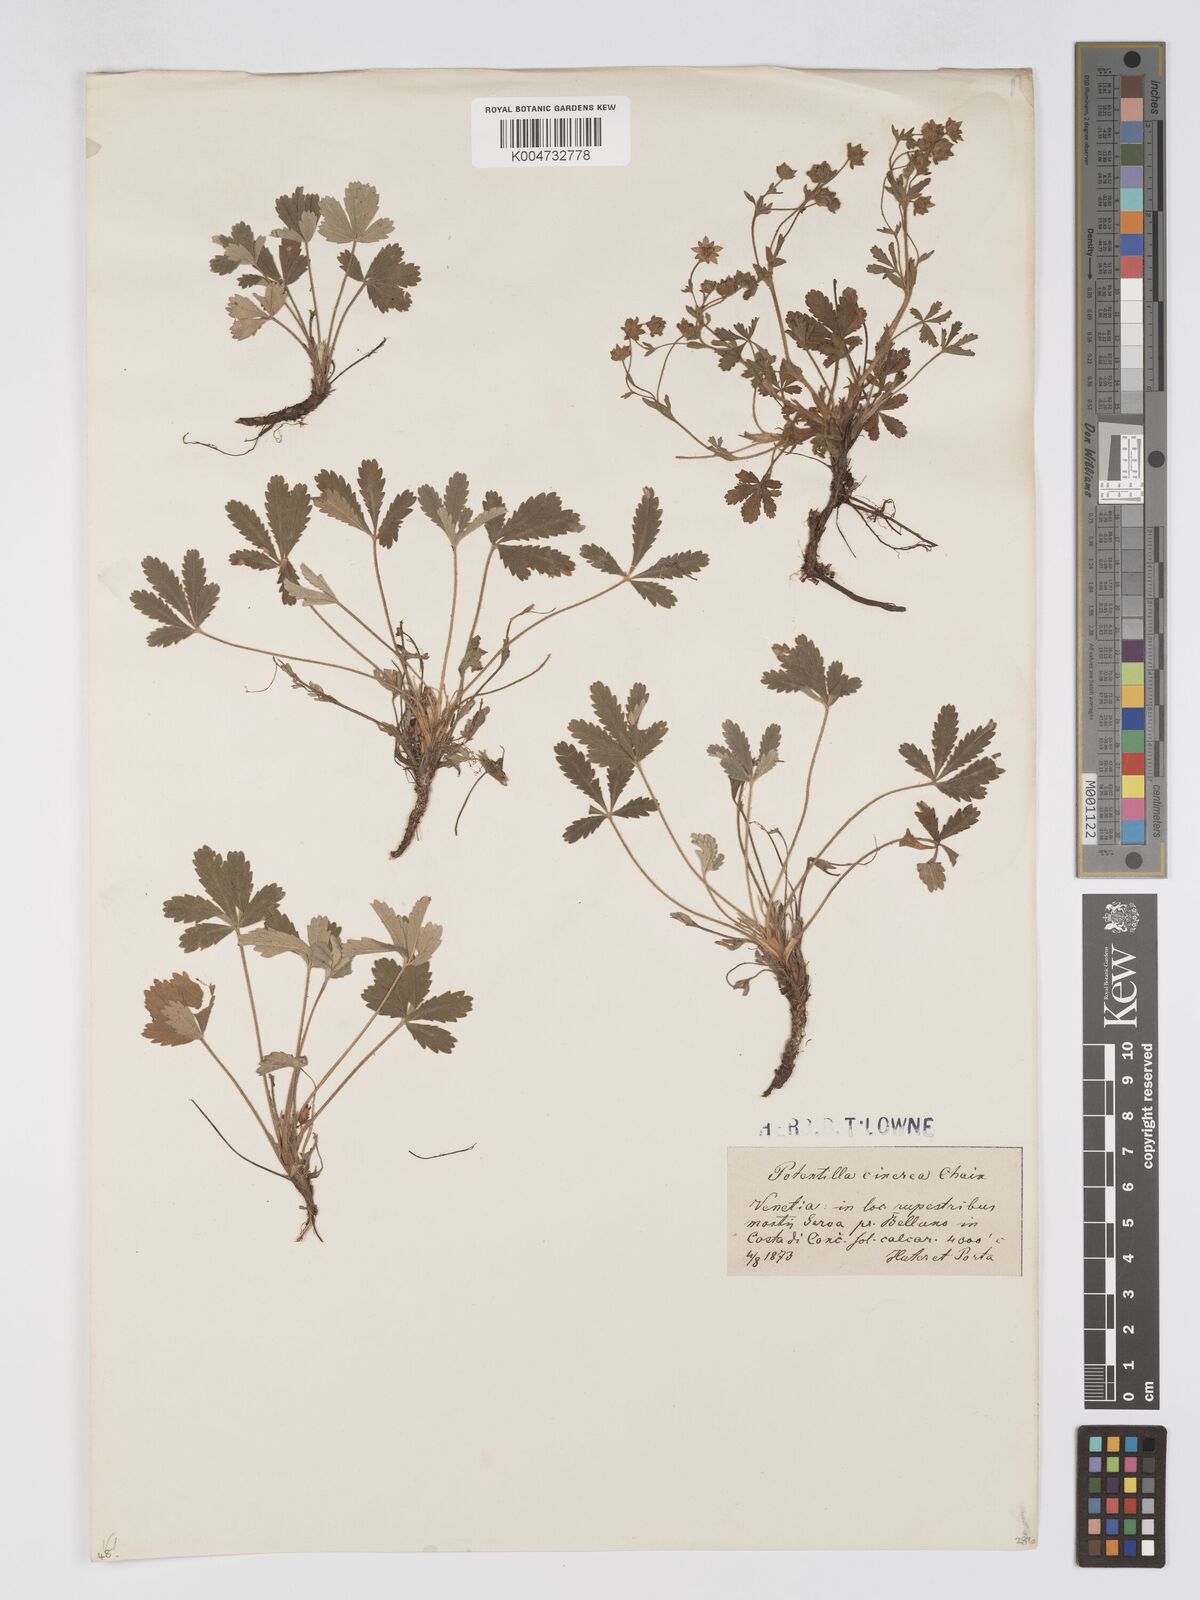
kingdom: Plantae
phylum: Tracheophyta
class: Magnoliopsida
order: Rosales
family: Rosaceae
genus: Potentilla
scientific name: Potentilla
